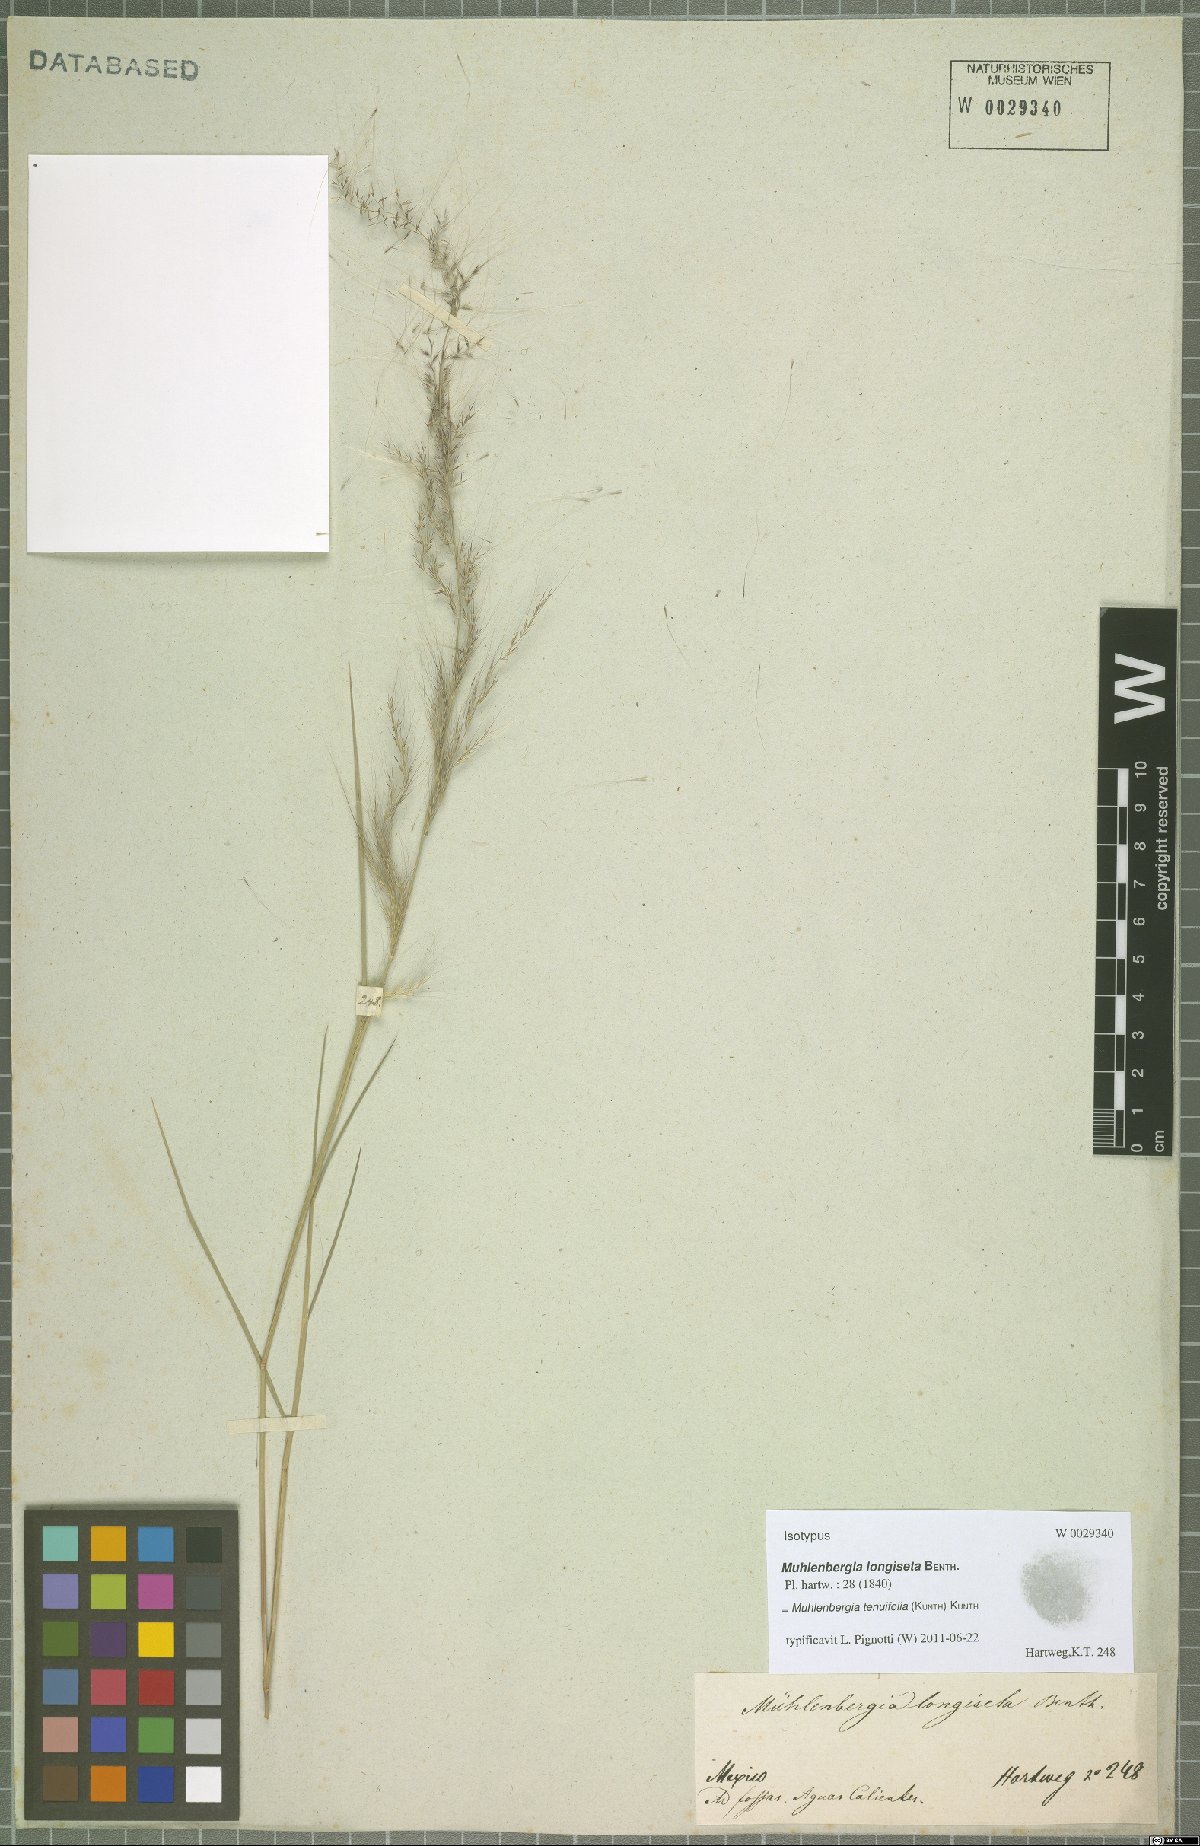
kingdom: Plantae
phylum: Tracheophyta
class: Liliopsida
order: Poales
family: Poaceae
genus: Muhlenbergia
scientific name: Muhlenbergia tenuifolia
